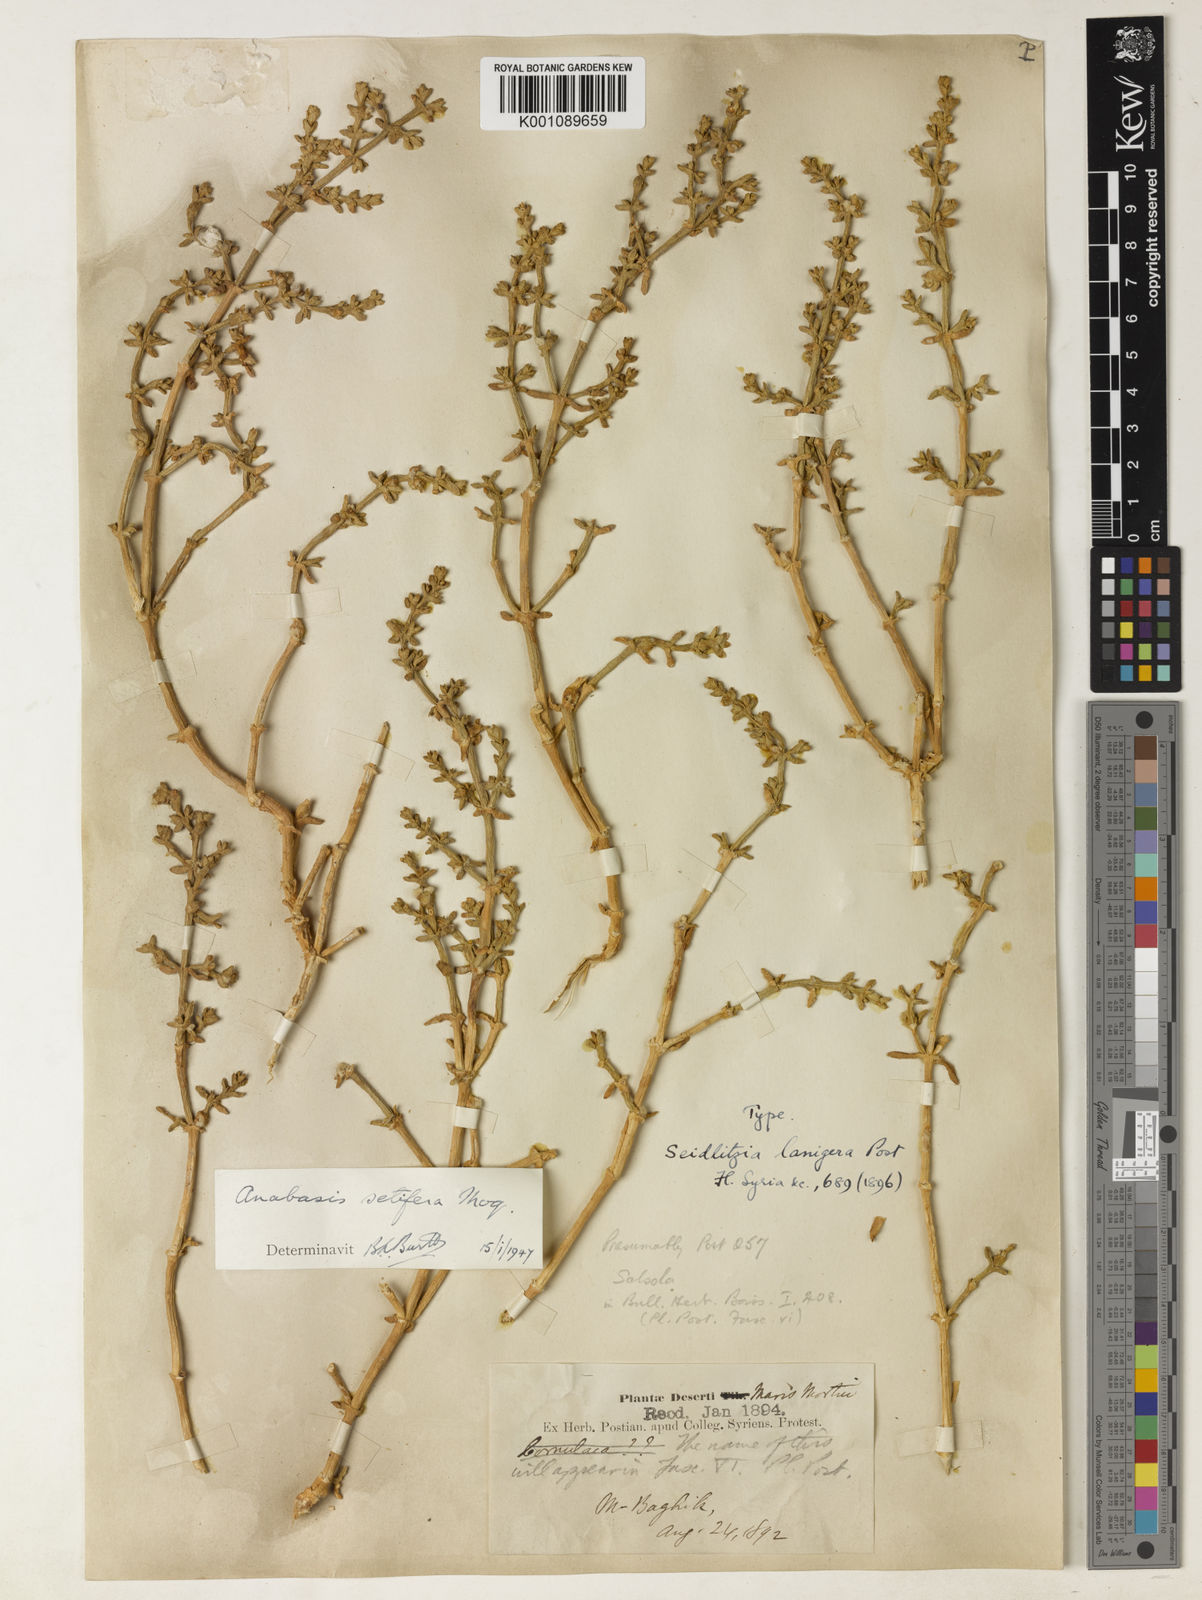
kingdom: Plantae
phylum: Tracheophyta
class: Magnoliopsida
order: Caryophyllales
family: Amaranthaceae
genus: Anabasis
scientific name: Anabasis setifera
